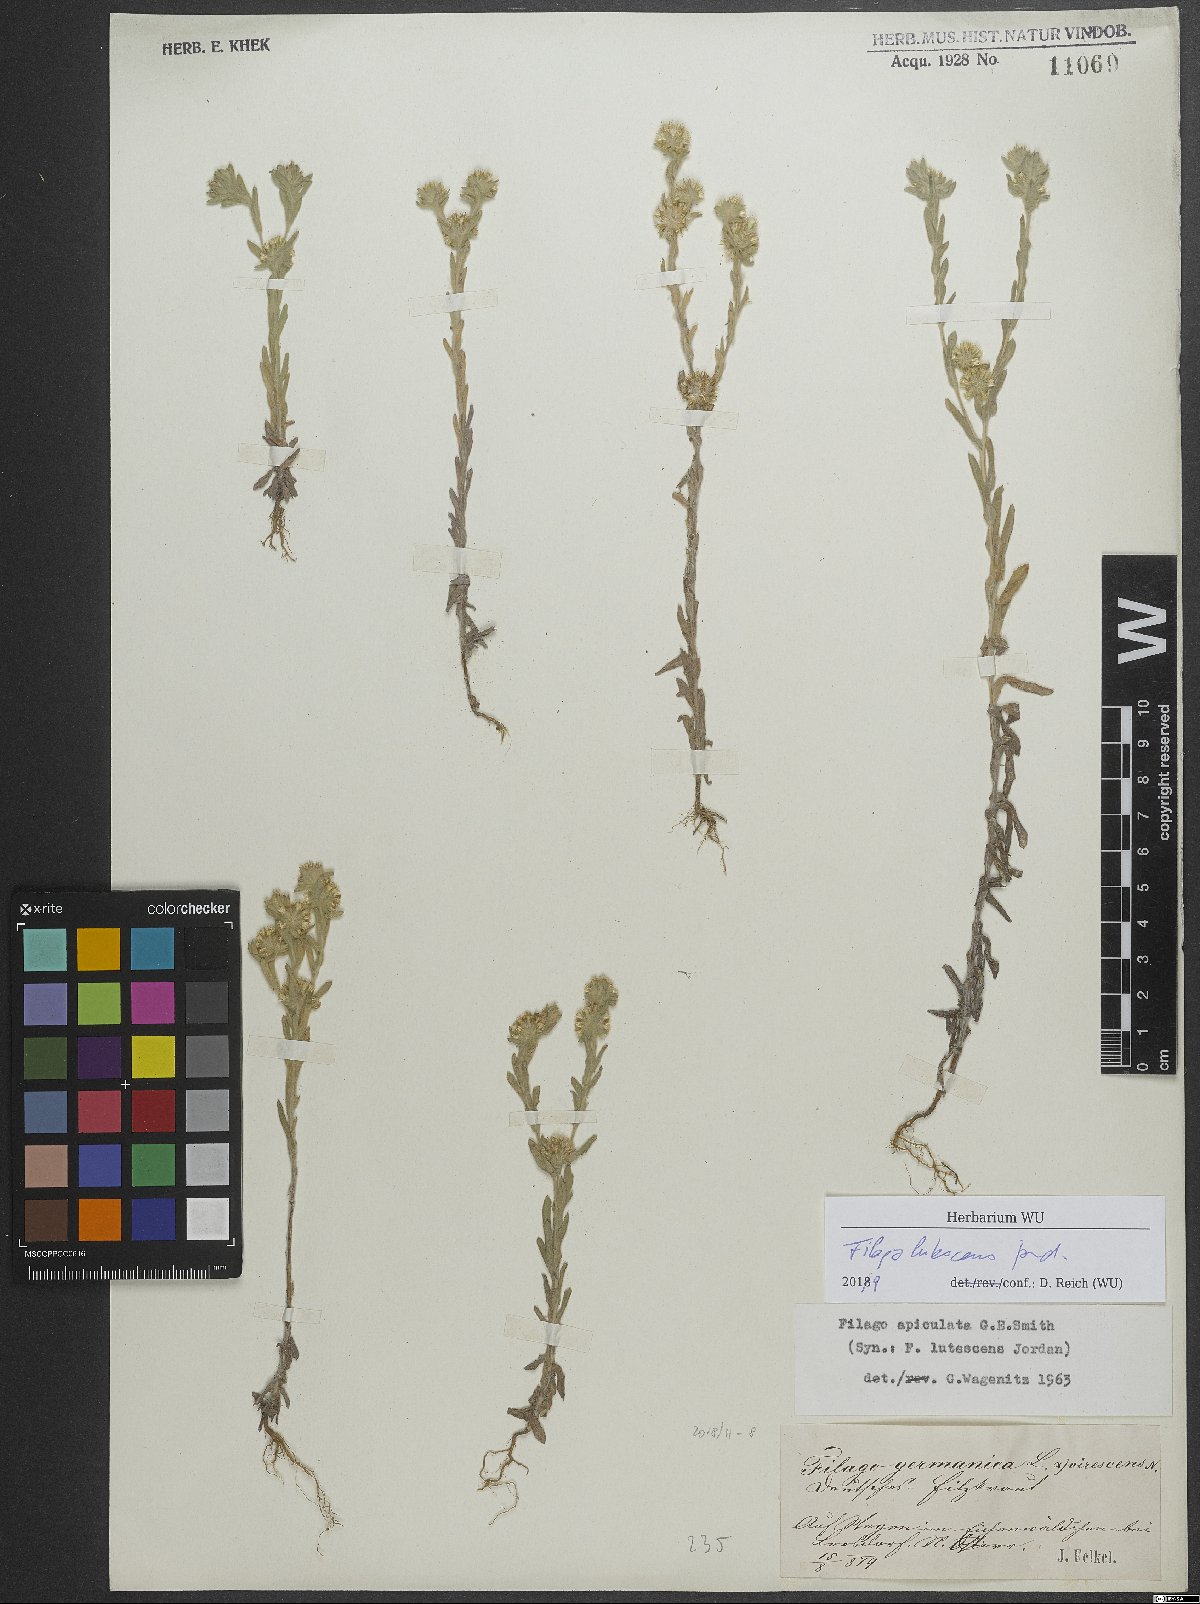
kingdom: Plantae
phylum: Tracheophyta
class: Magnoliopsida
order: Asterales
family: Asteraceae
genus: Filago
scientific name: Filago lutescens
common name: Red-tipped cudweed
